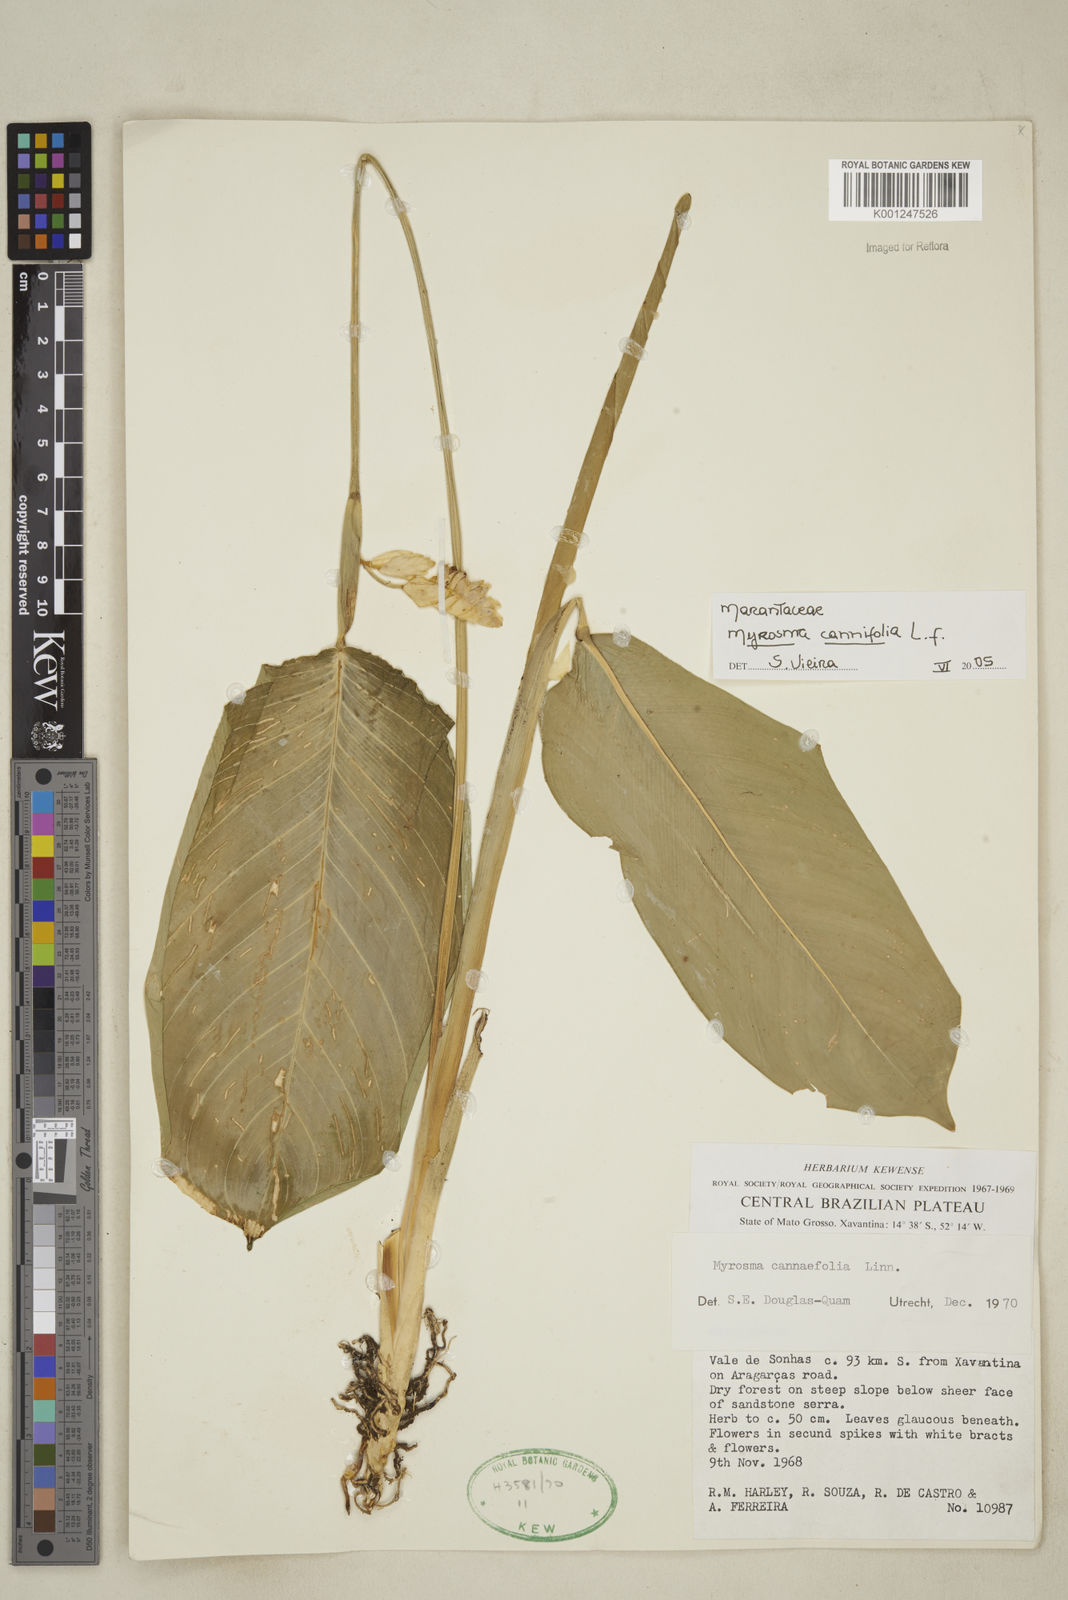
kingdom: Plantae
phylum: Tracheophyta
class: Liliopsida
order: Zingiberales
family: Marantaceae
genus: Myrosma
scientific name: Myrosma cannifolia
